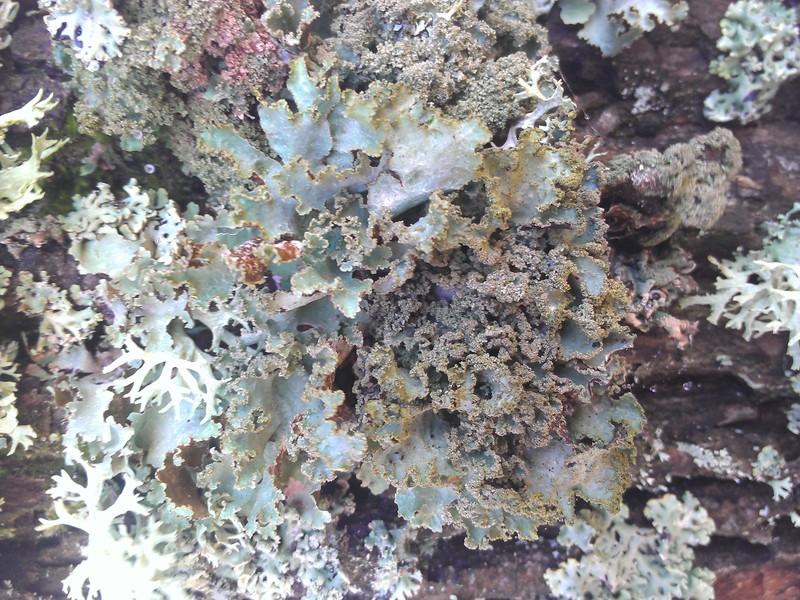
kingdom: Fungi
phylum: Ascomycota
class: Lecanoromycetes
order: Lecanorales
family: Parmeliaceae
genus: Platismatia
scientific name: Platismatia glauca
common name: Varied rag lichen
